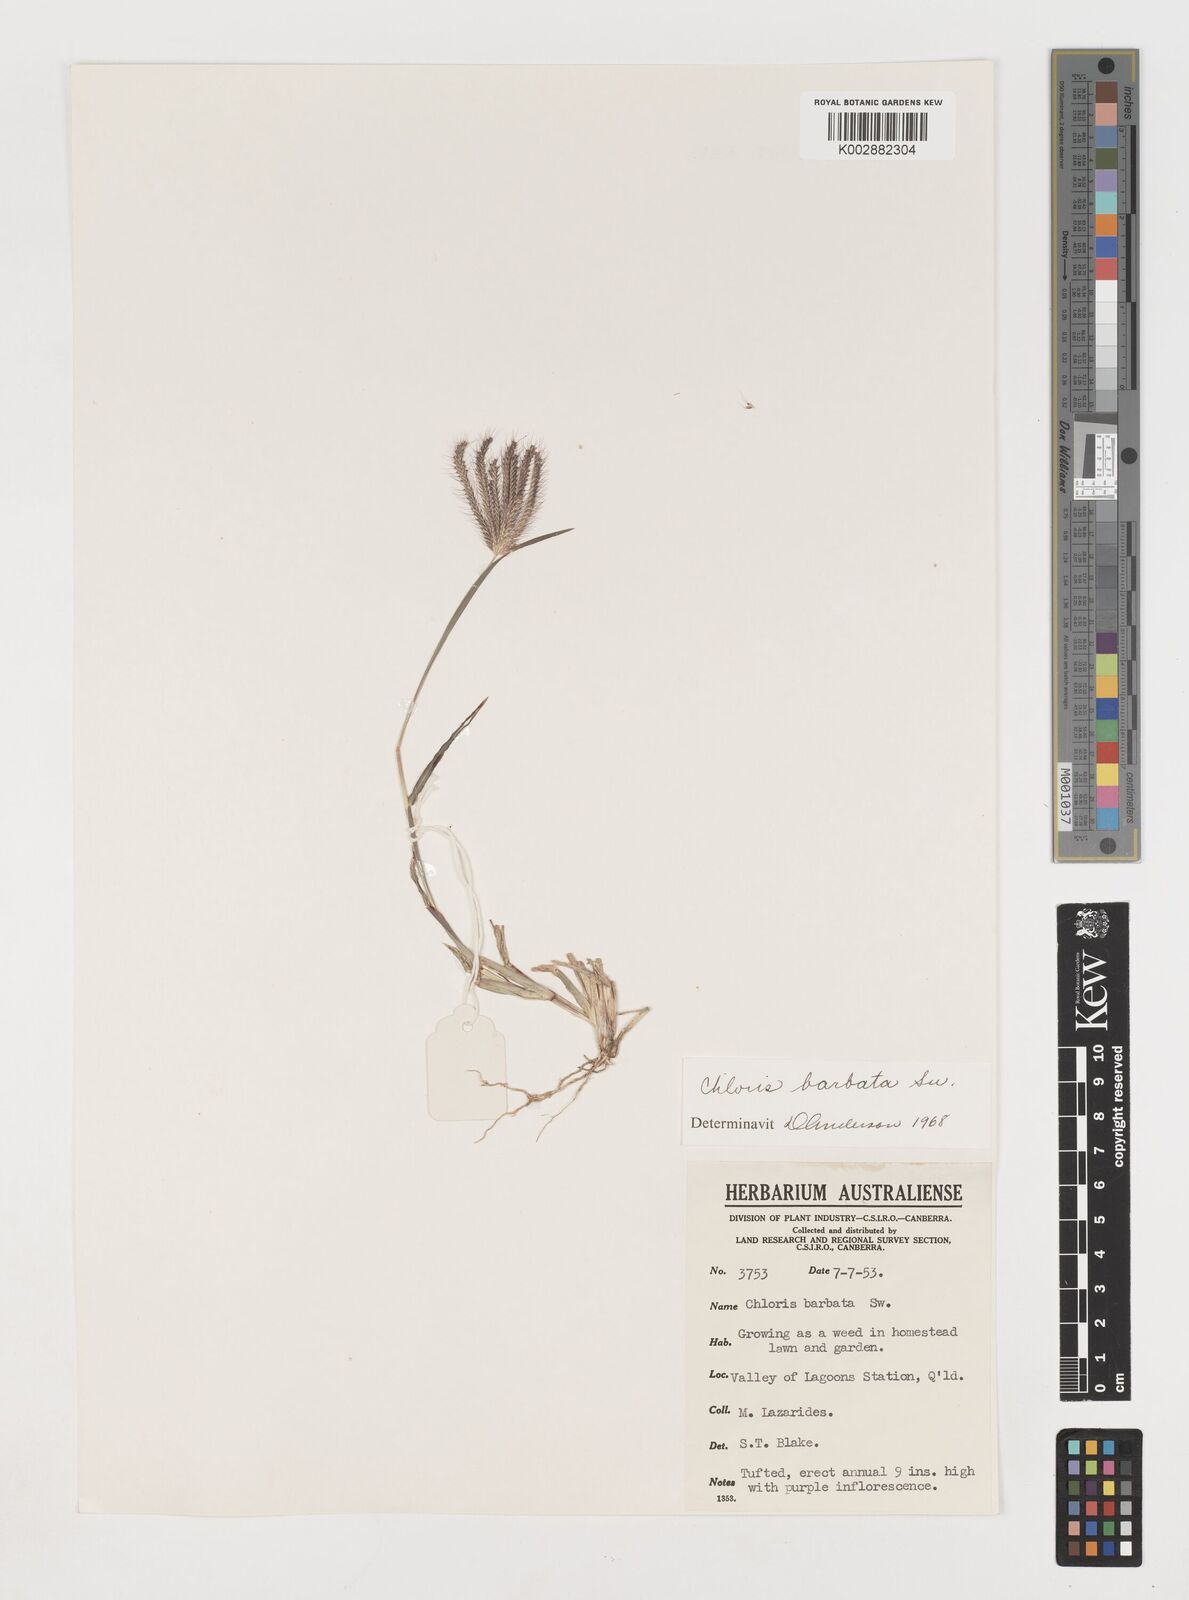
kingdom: Plantae
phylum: Tracheophyta
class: Liliopsida
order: Poales
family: Poaceae
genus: Chloris
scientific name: Chloris barbata
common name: Swollen fingergrass
